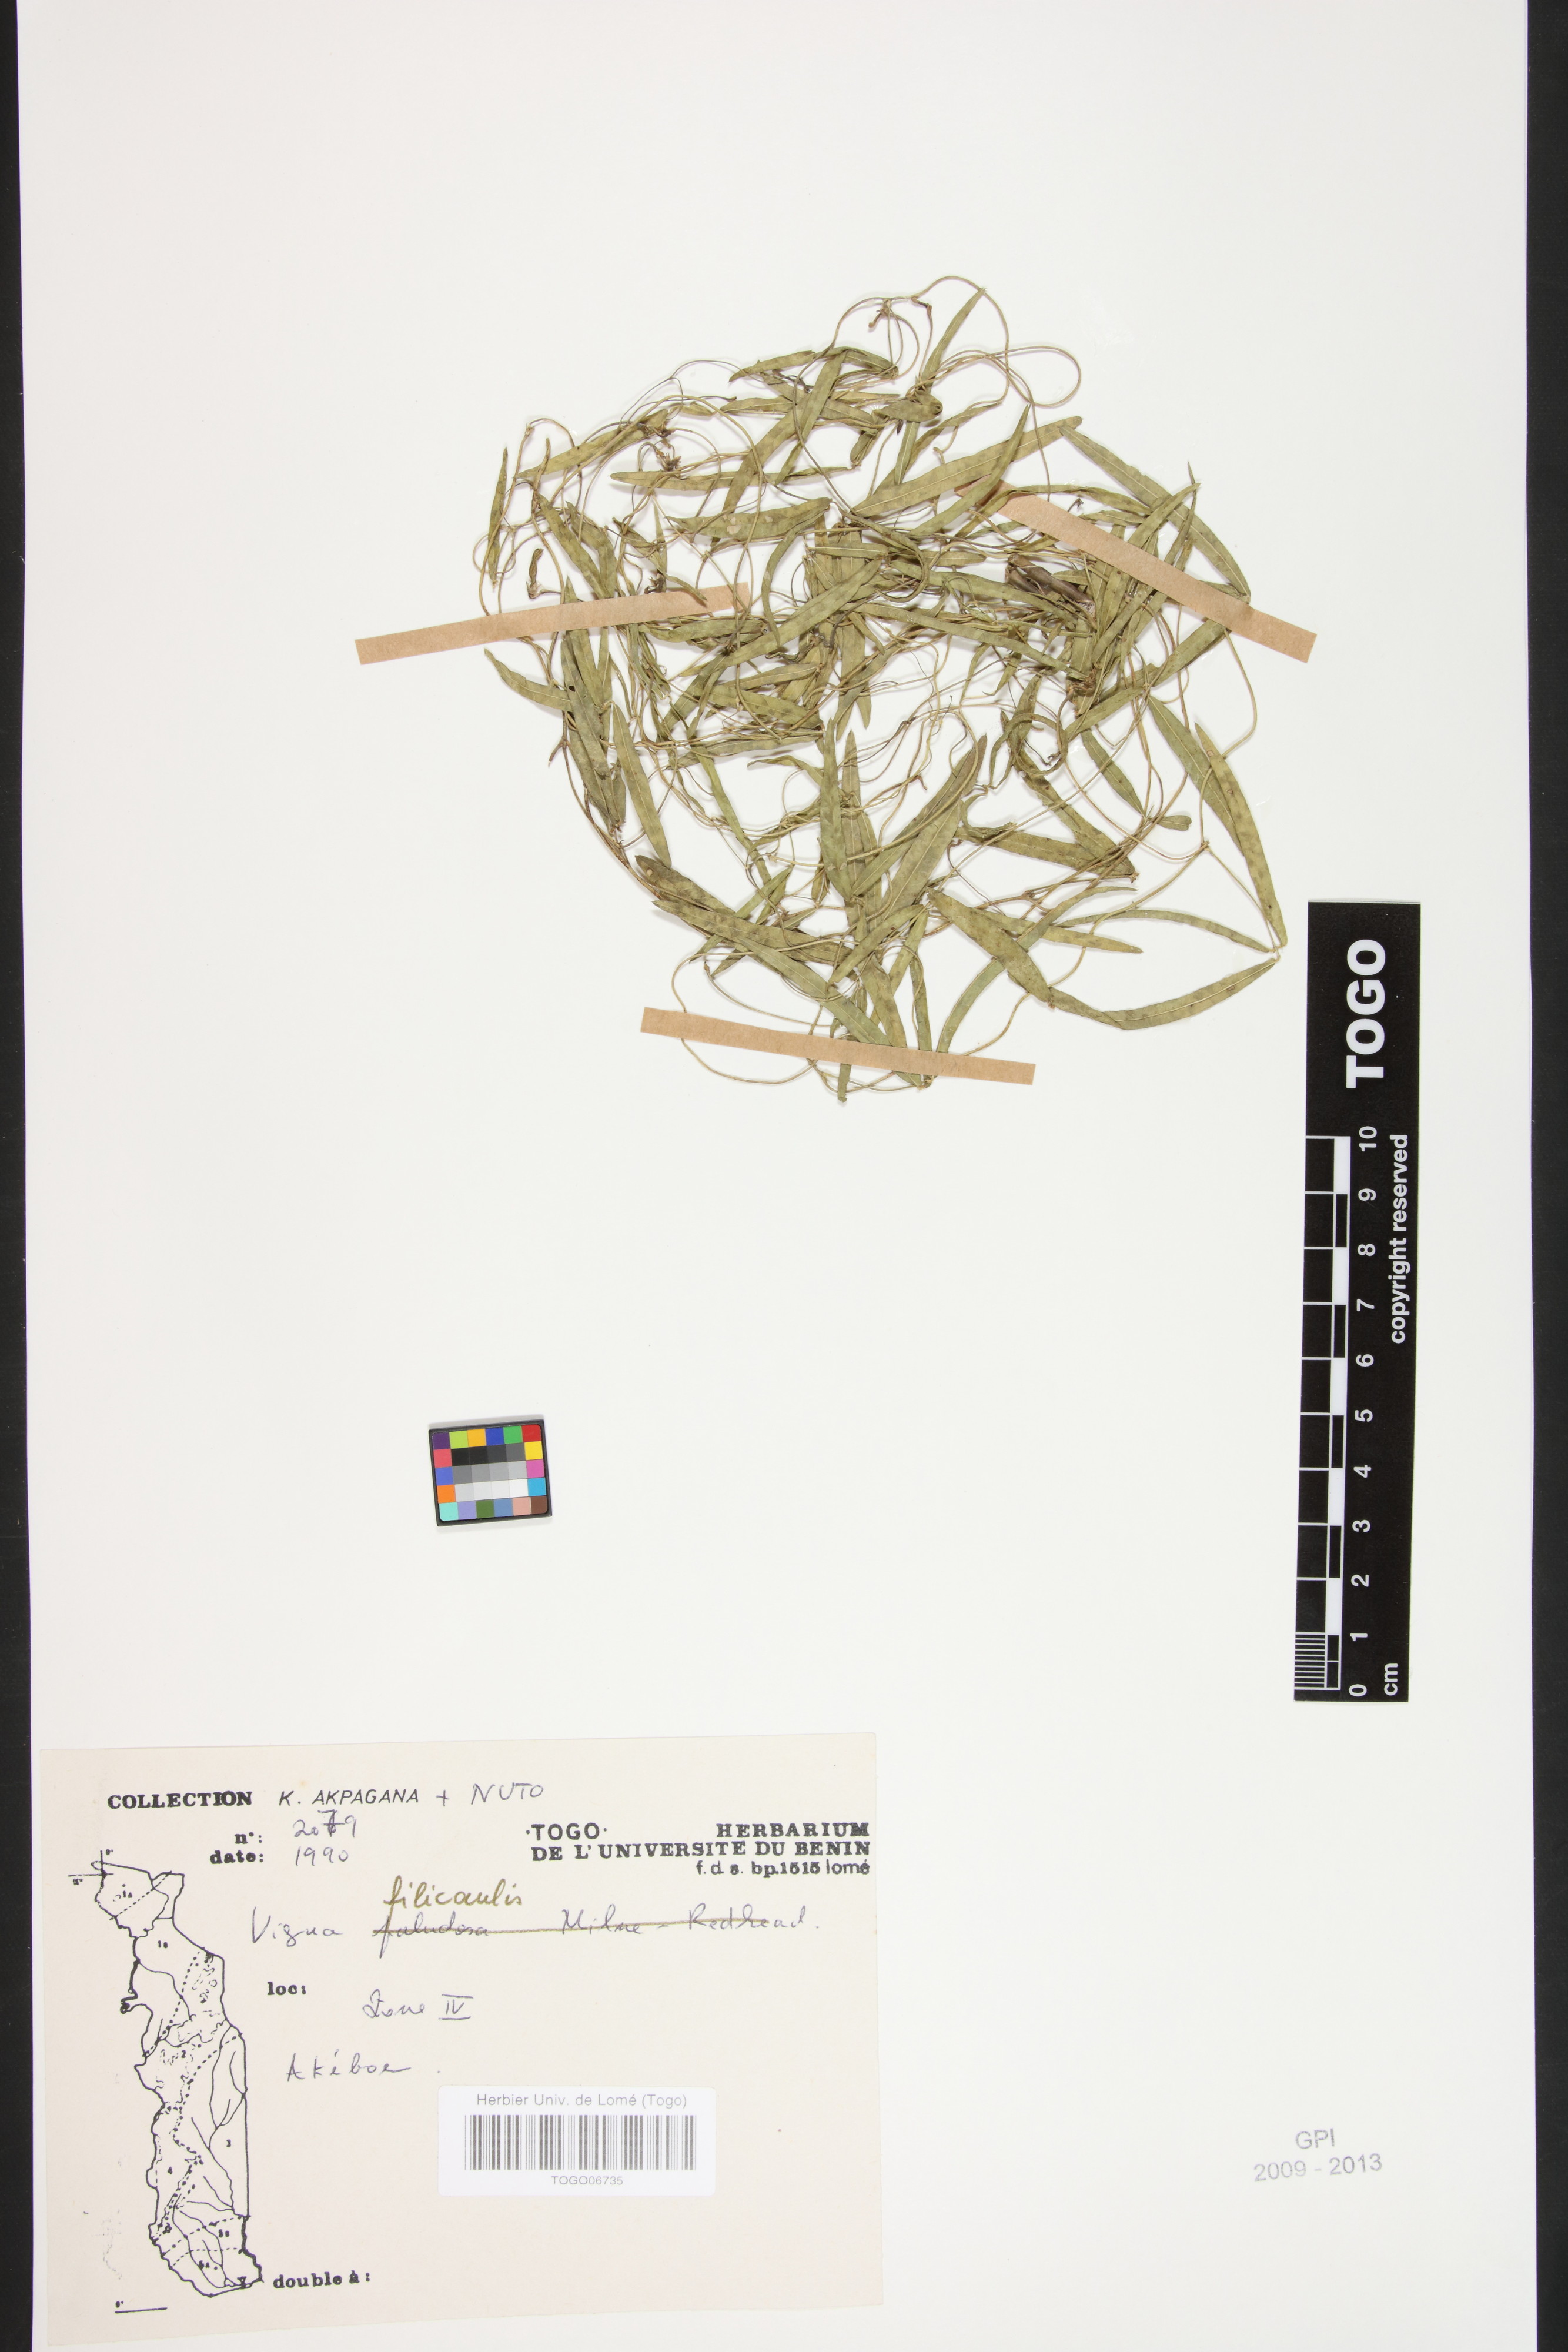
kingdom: Plantae
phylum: Tracheophyta
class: Magnoliopsida
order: Fabales
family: Fabaceae
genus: Vigna
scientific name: Vigna filicaulis
